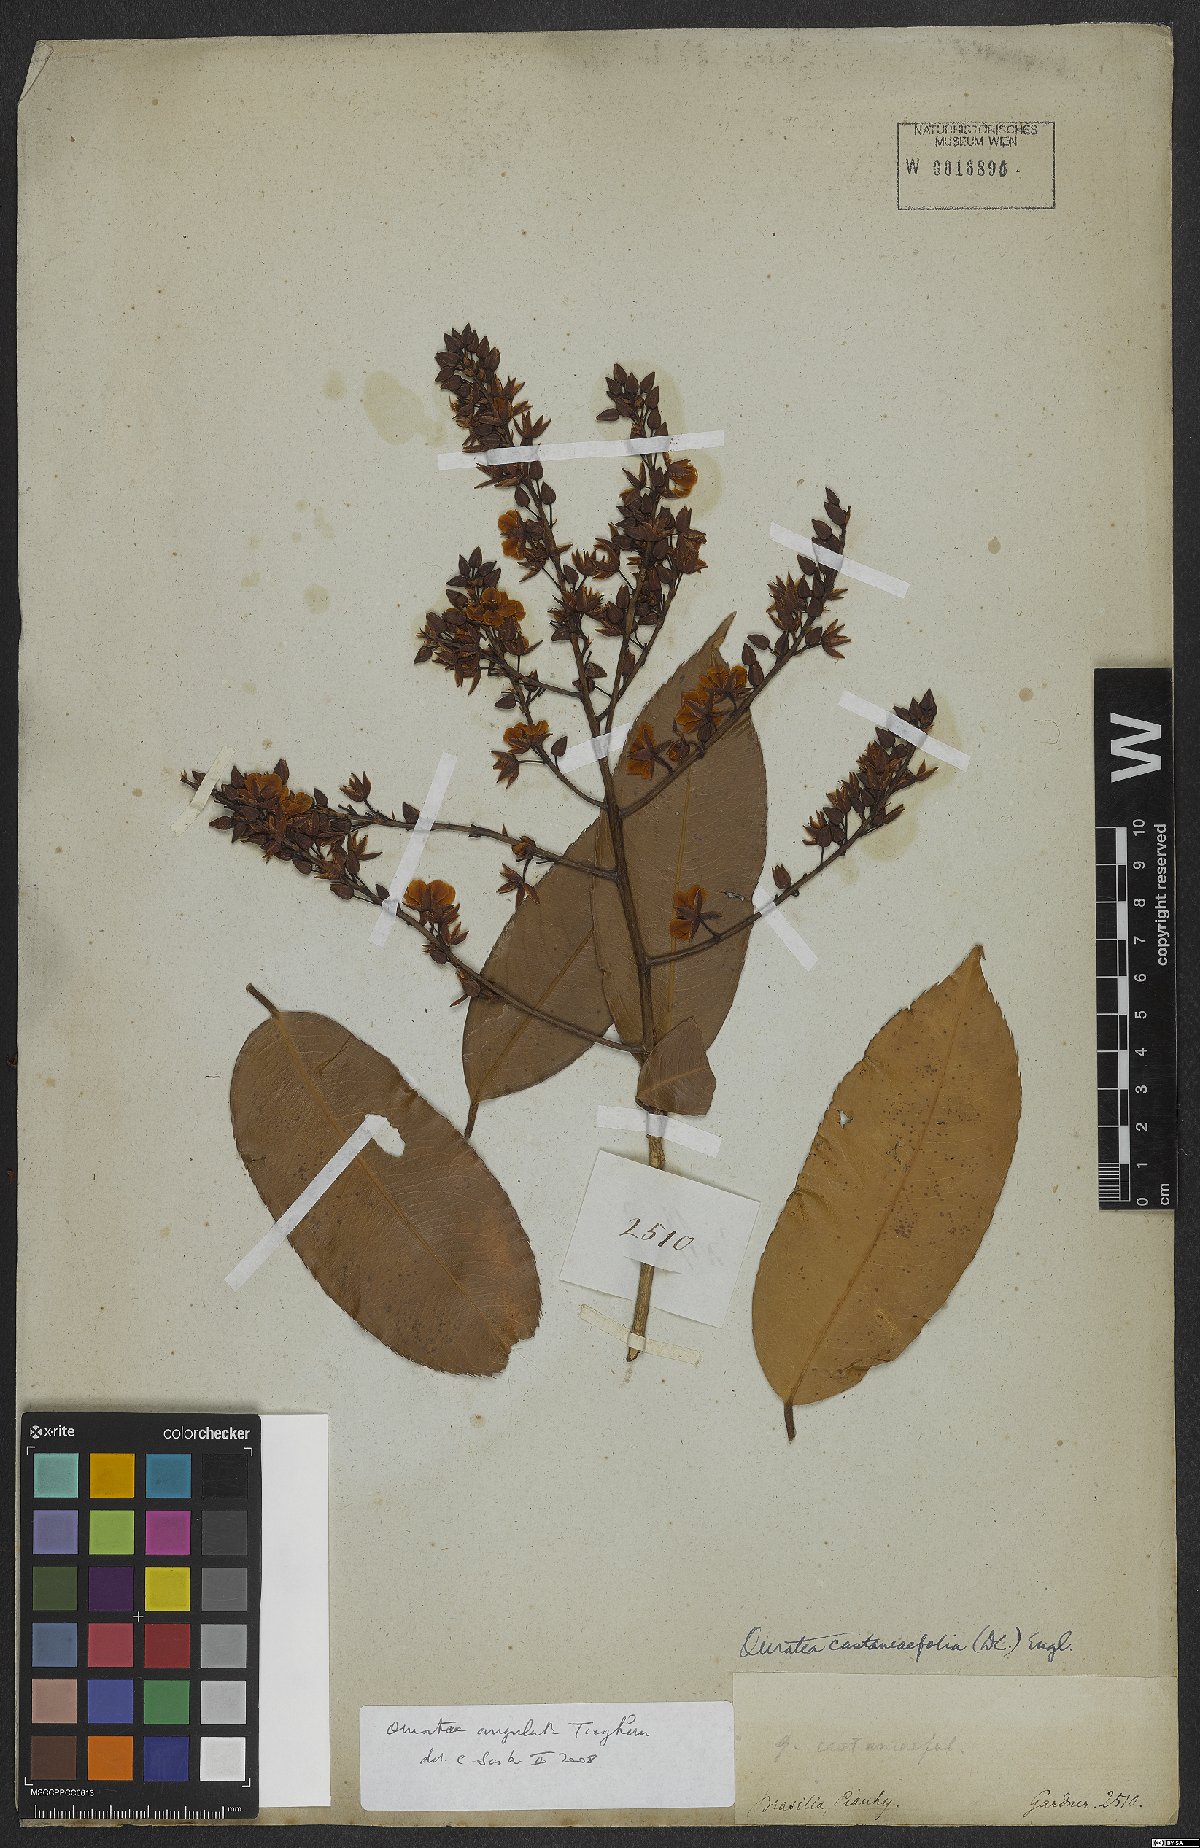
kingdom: Plantae
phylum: Tracheophyta
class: Magnoliopsida
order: Malpighiales
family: Ochnaceae
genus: Gomphia
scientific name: Gomphia obtusifolia
